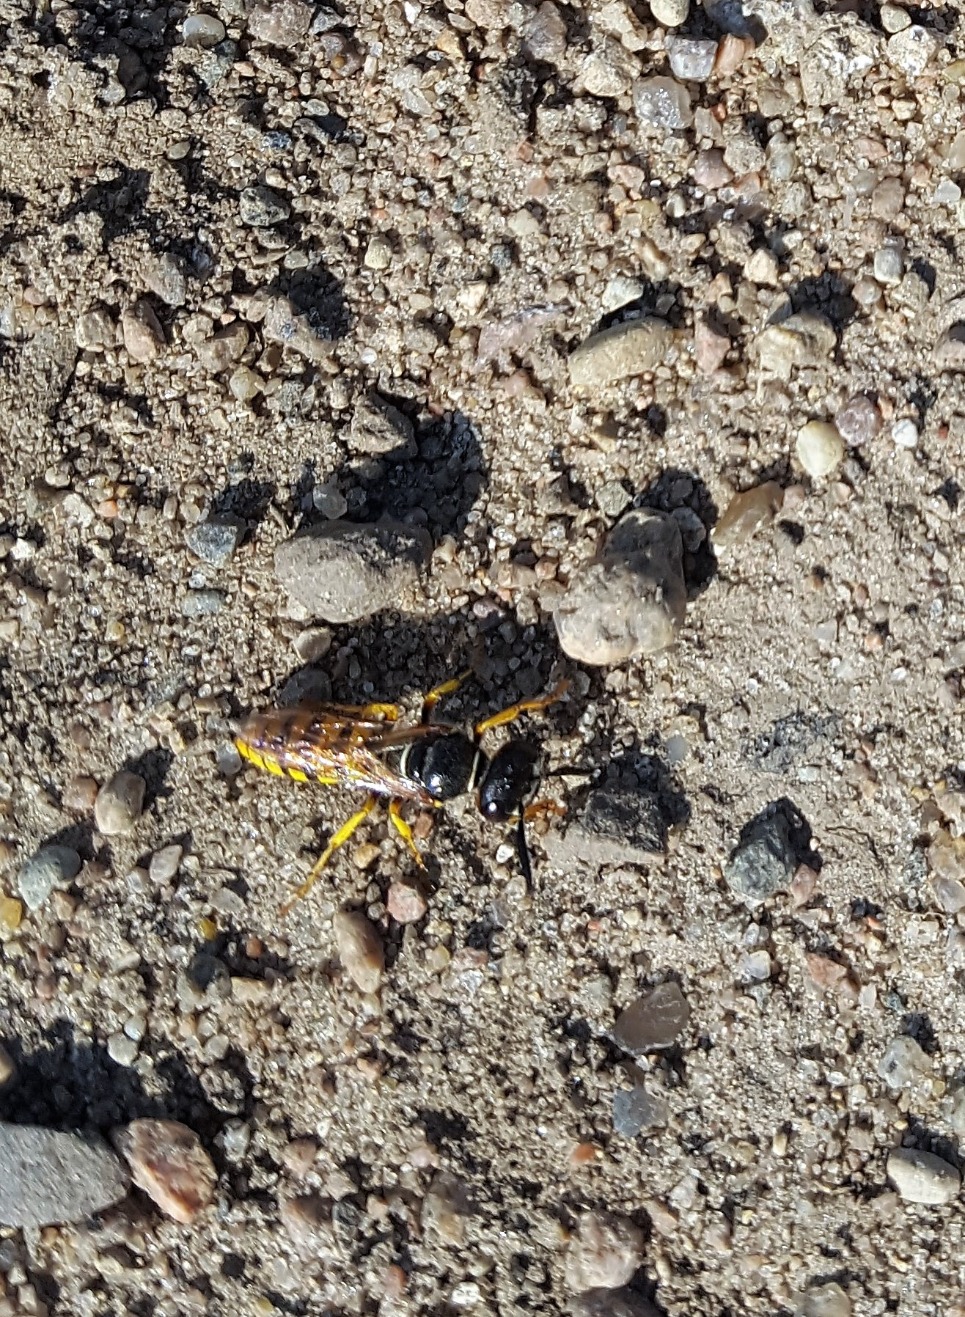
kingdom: Animalia
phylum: Arthropoda
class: Insecta
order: Hymenoptera
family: Crabronidae
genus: Philanthus
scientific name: Philanthus triangulum
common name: Biulv
